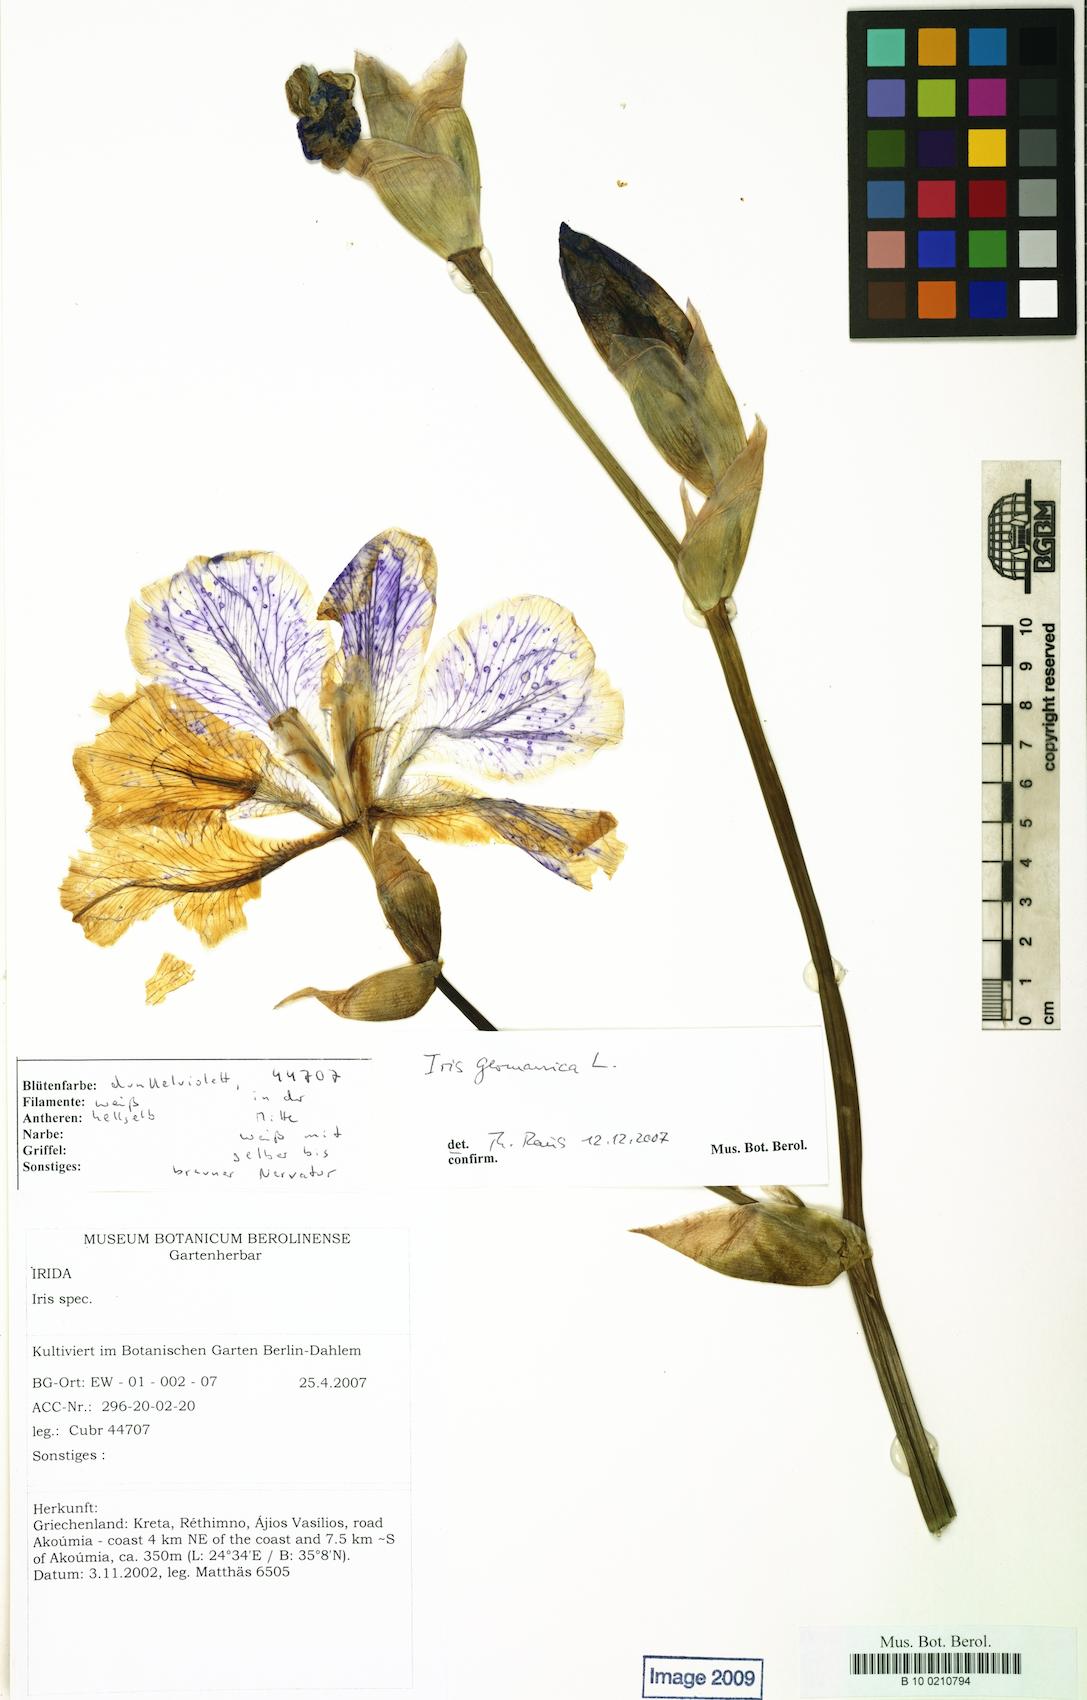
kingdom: Plantae
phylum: Tracheophyta
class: Liliopsida
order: Asparagales
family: Iridaceae
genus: Iris
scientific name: Iris germanica
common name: German iris
